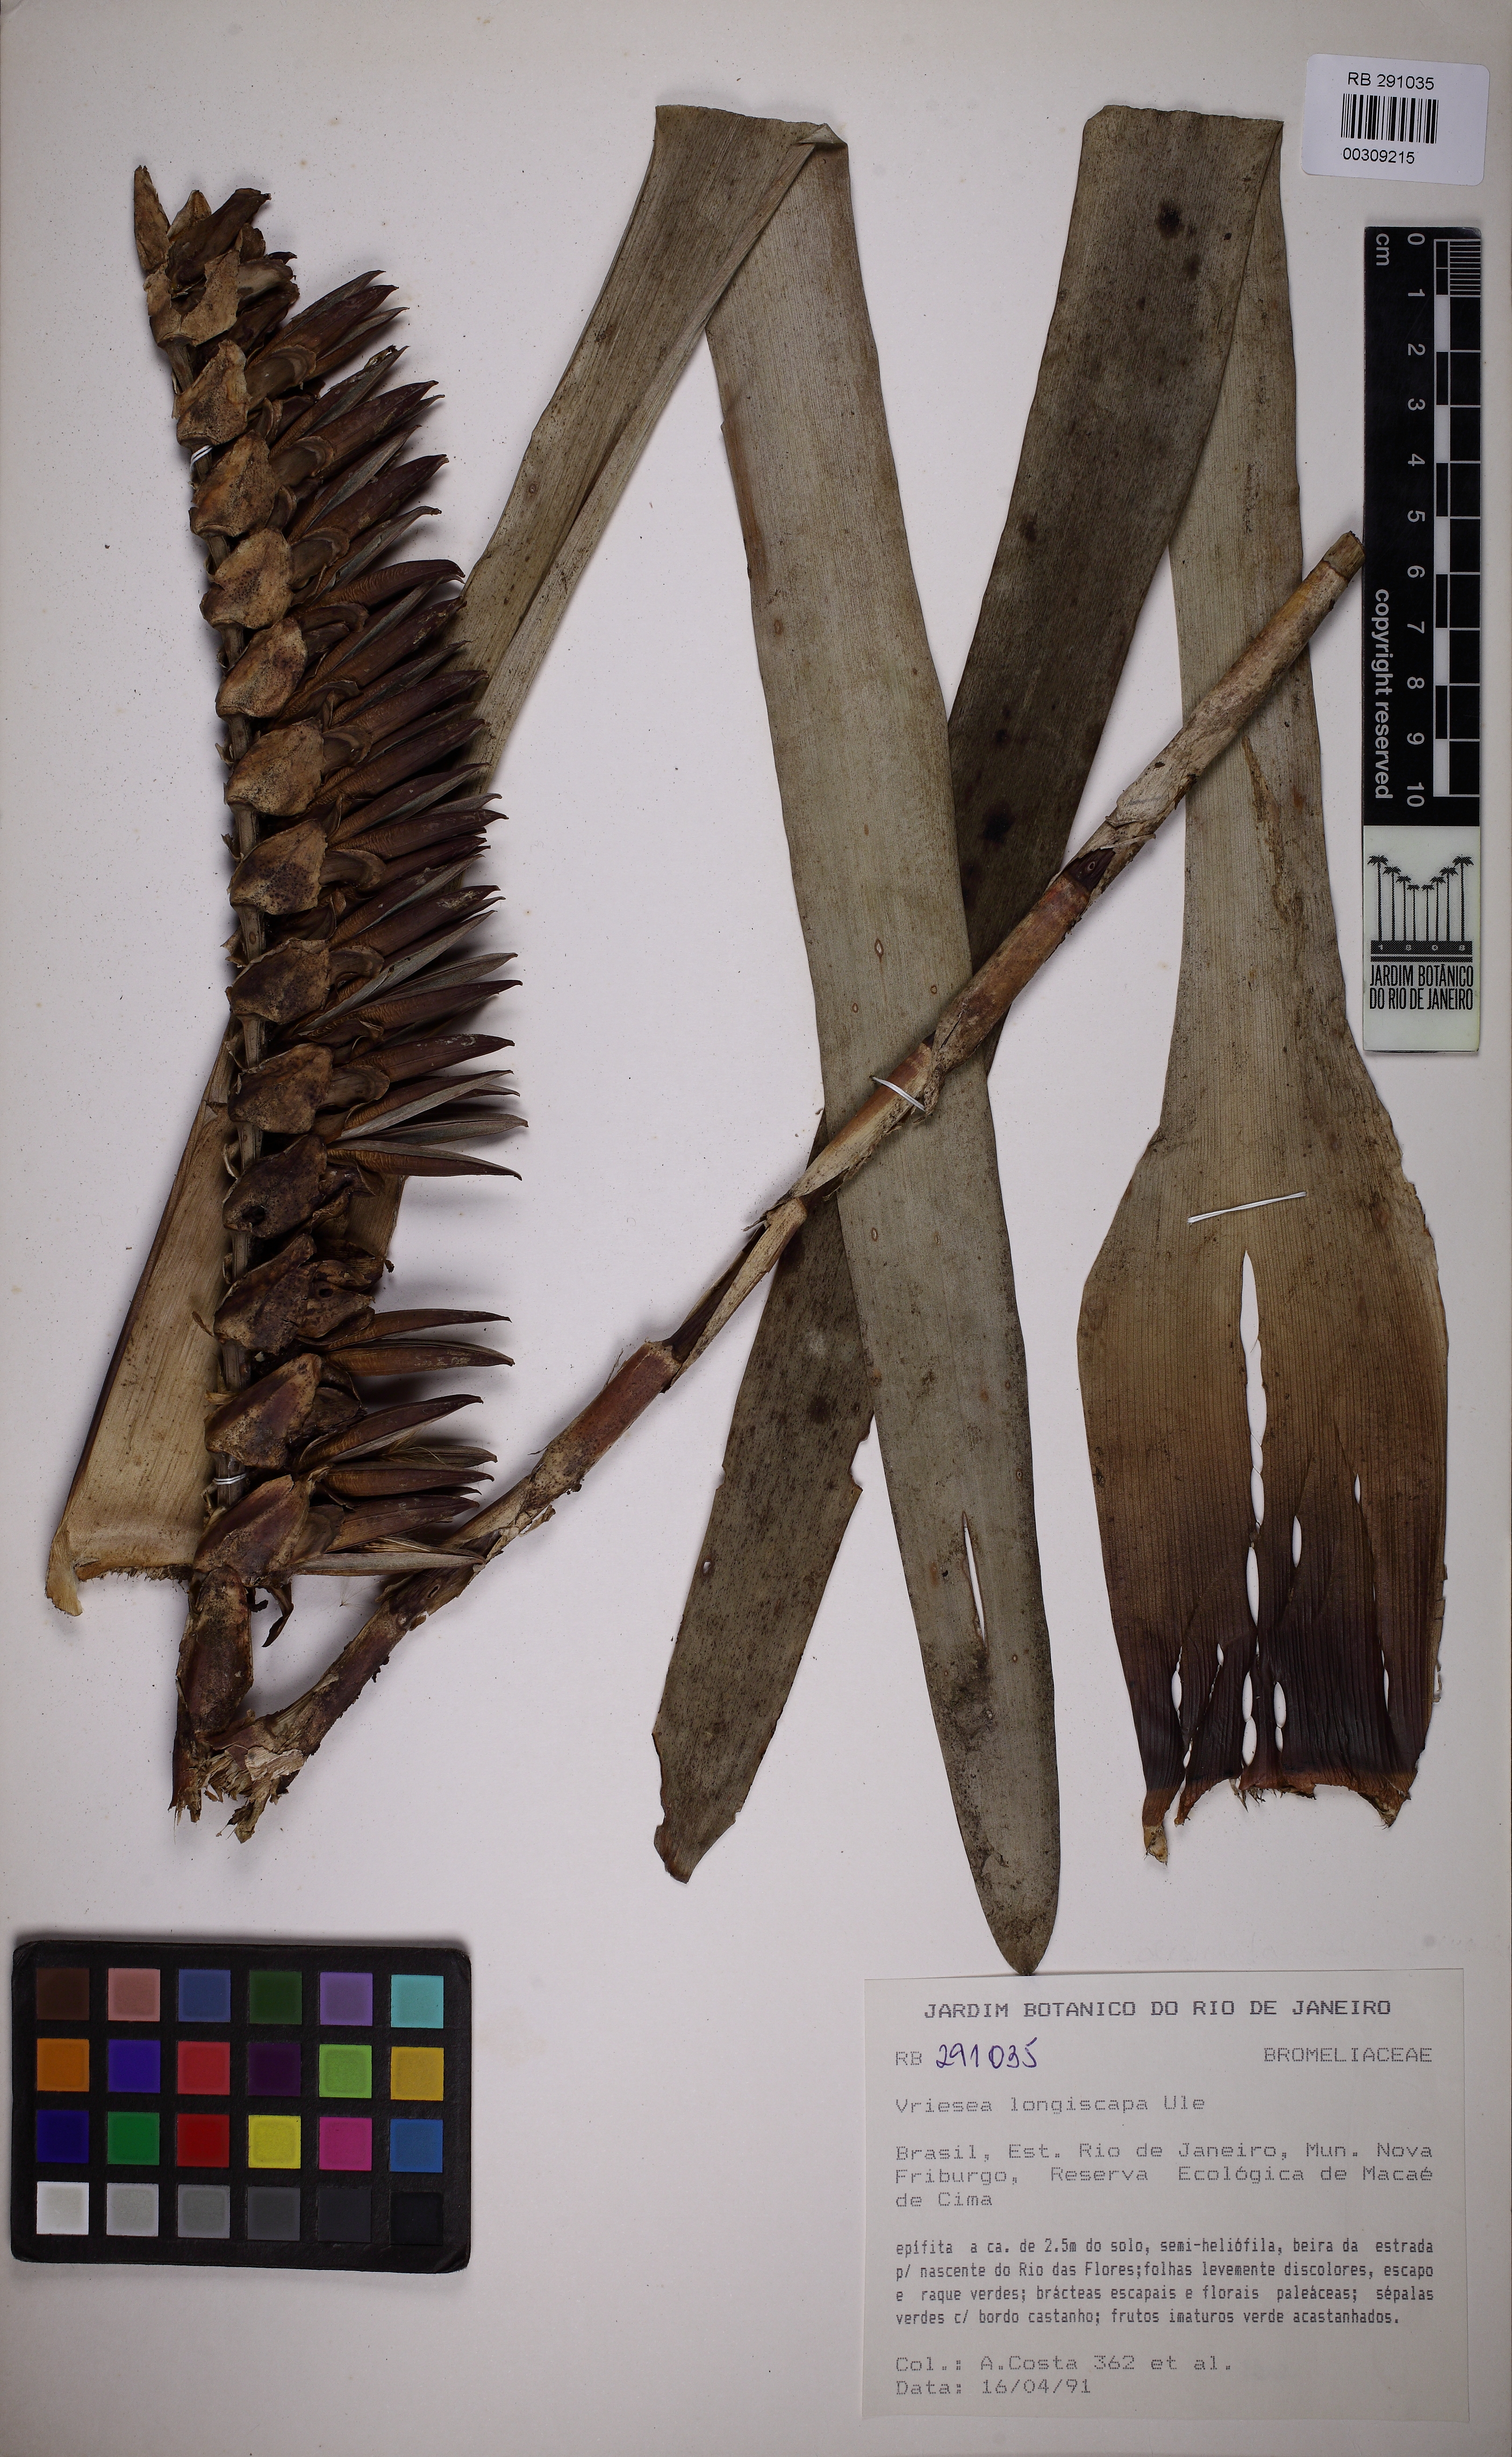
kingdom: Plantae
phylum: Tracheophyta
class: Liliopsida
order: Poales
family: Bromeliaceae
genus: Vriesea
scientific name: Vriesea longiscapa
